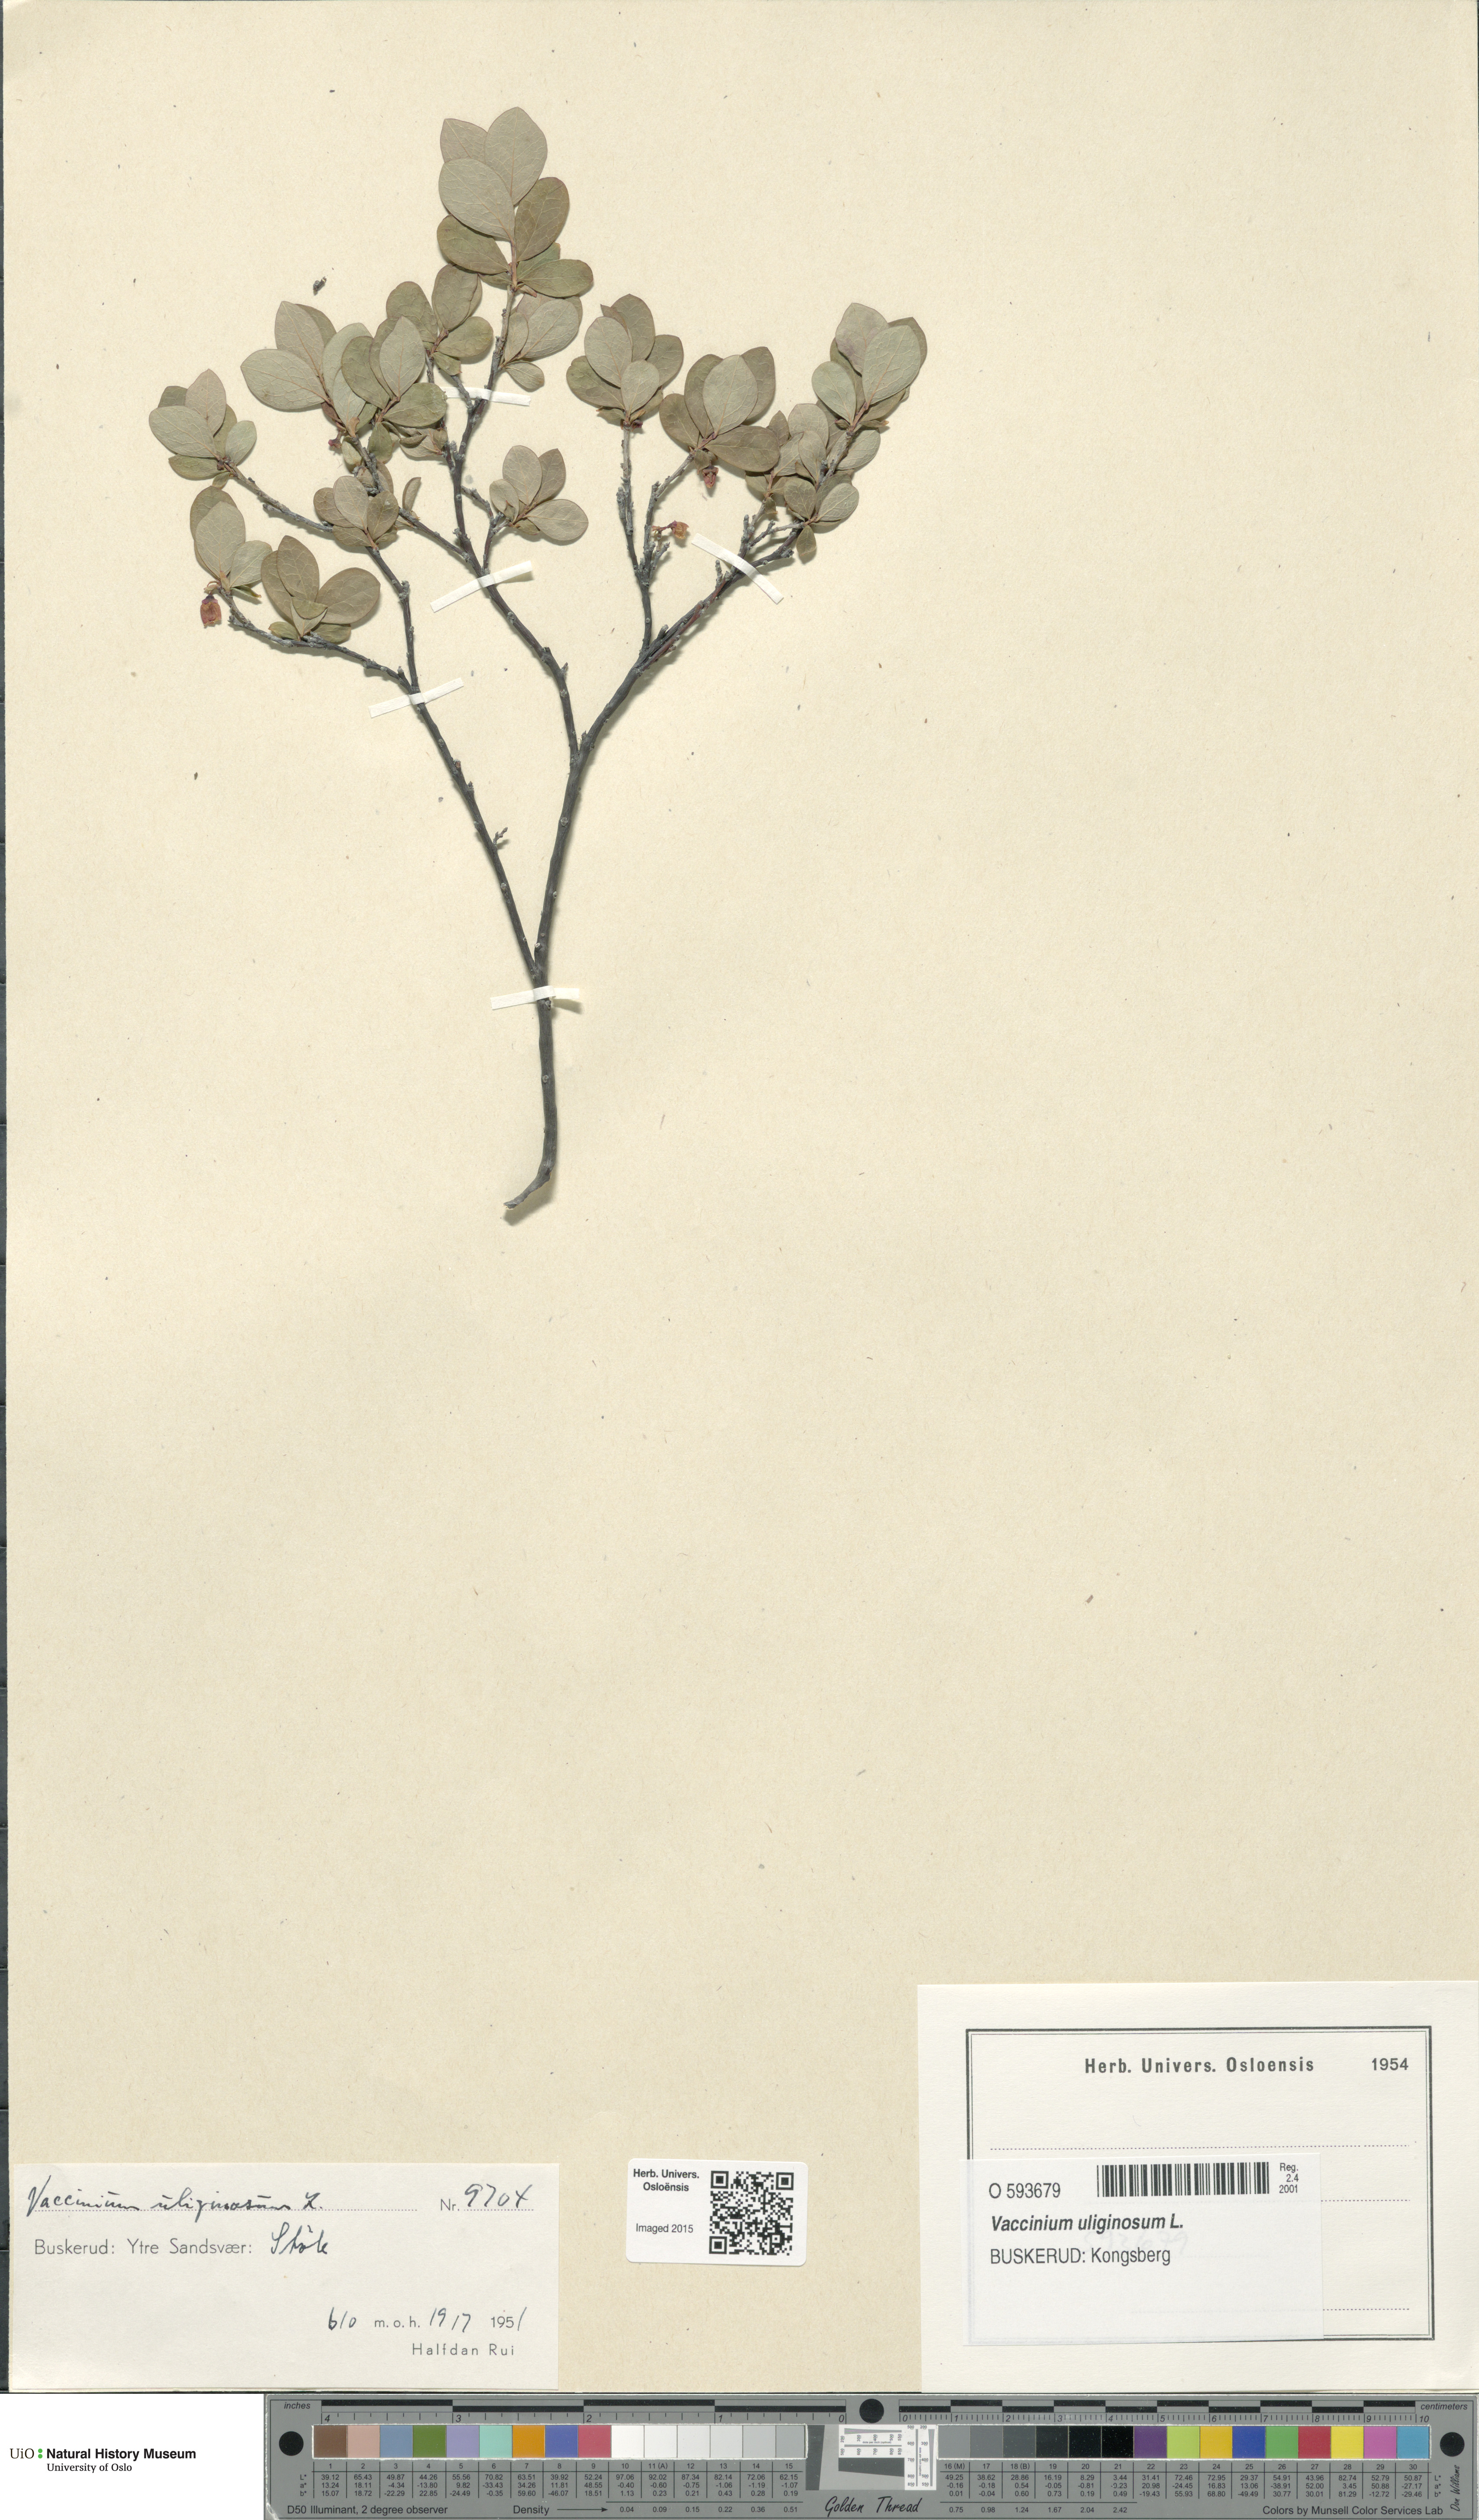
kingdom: Plantae
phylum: Tracheophyta
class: Magnoliopsida
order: Ericales
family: Ericaceae
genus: Vaccinium
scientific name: Vaccinium uliginosum
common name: Bog bilberry
